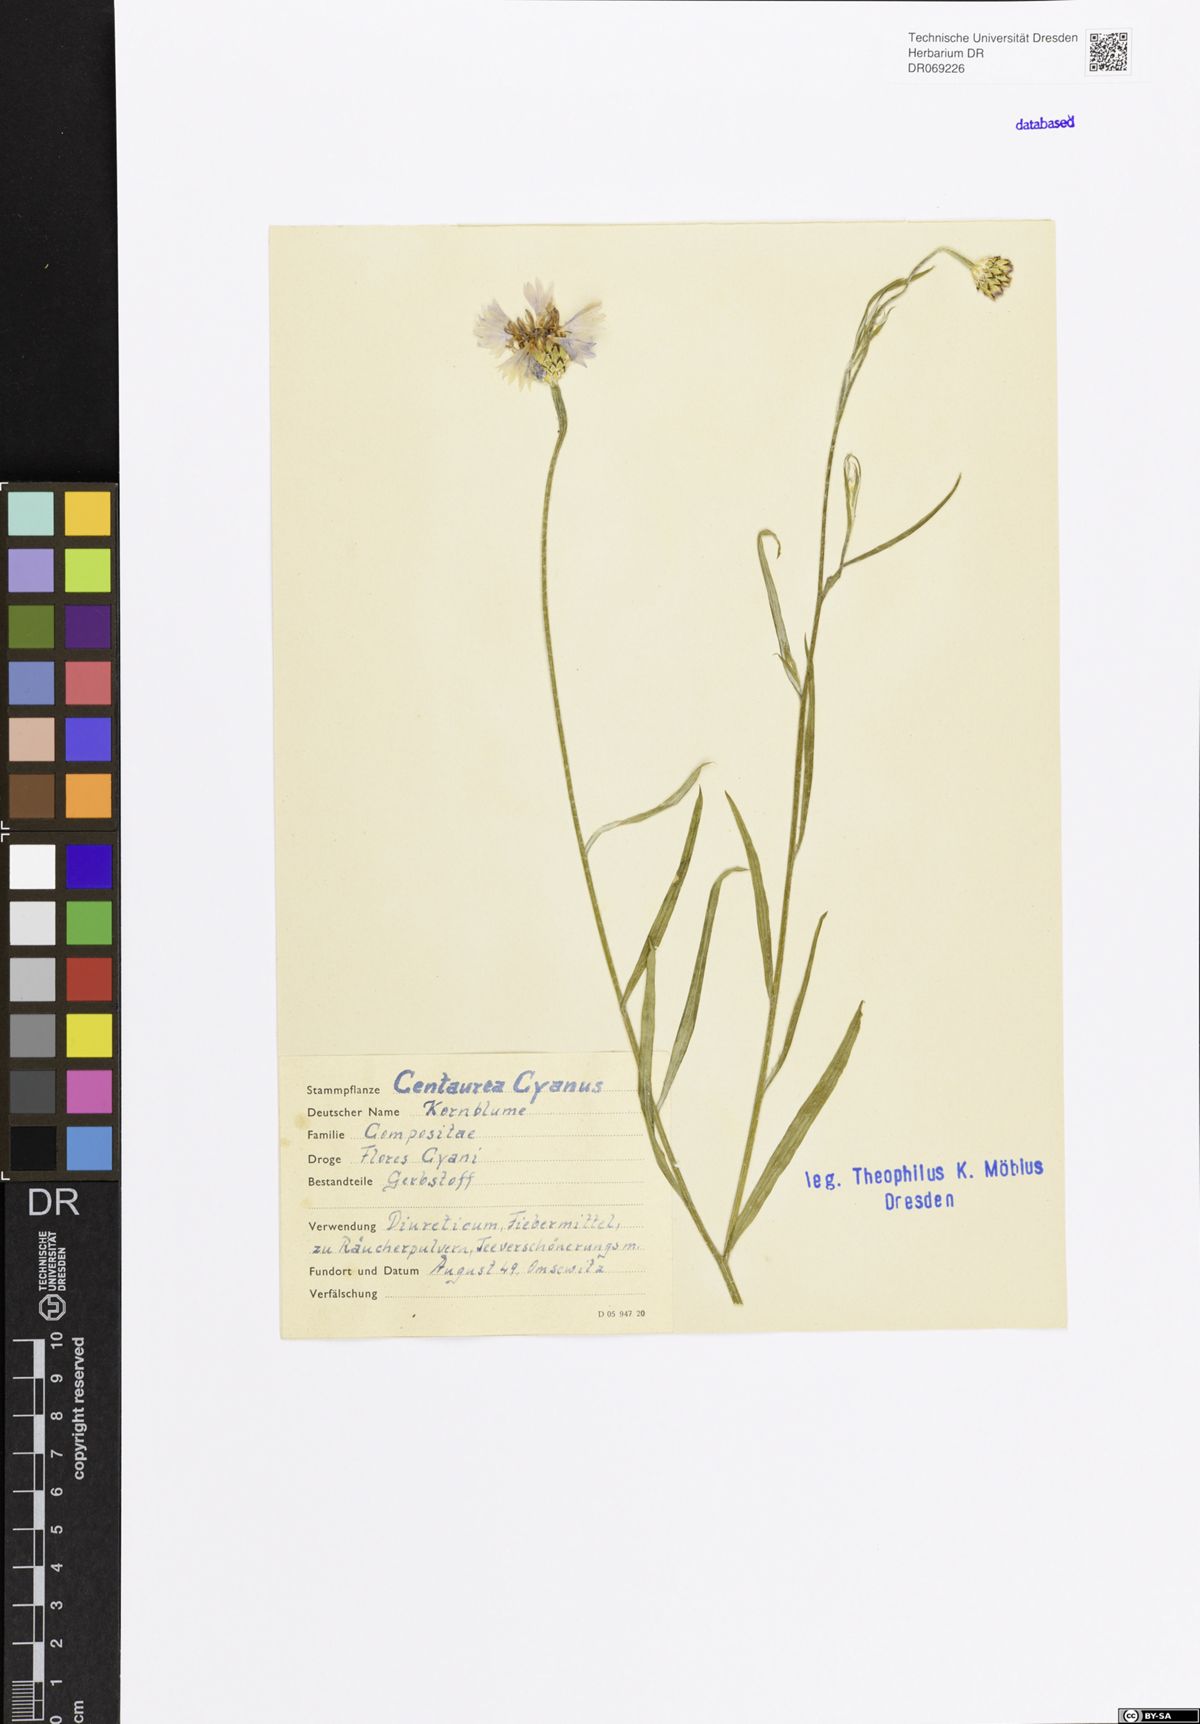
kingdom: Plantae
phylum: Tracheophyta
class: Magnoliopsida
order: Asterales
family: Asteraceae
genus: Centaurea
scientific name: Centaurea cyanus
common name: Cornflower
